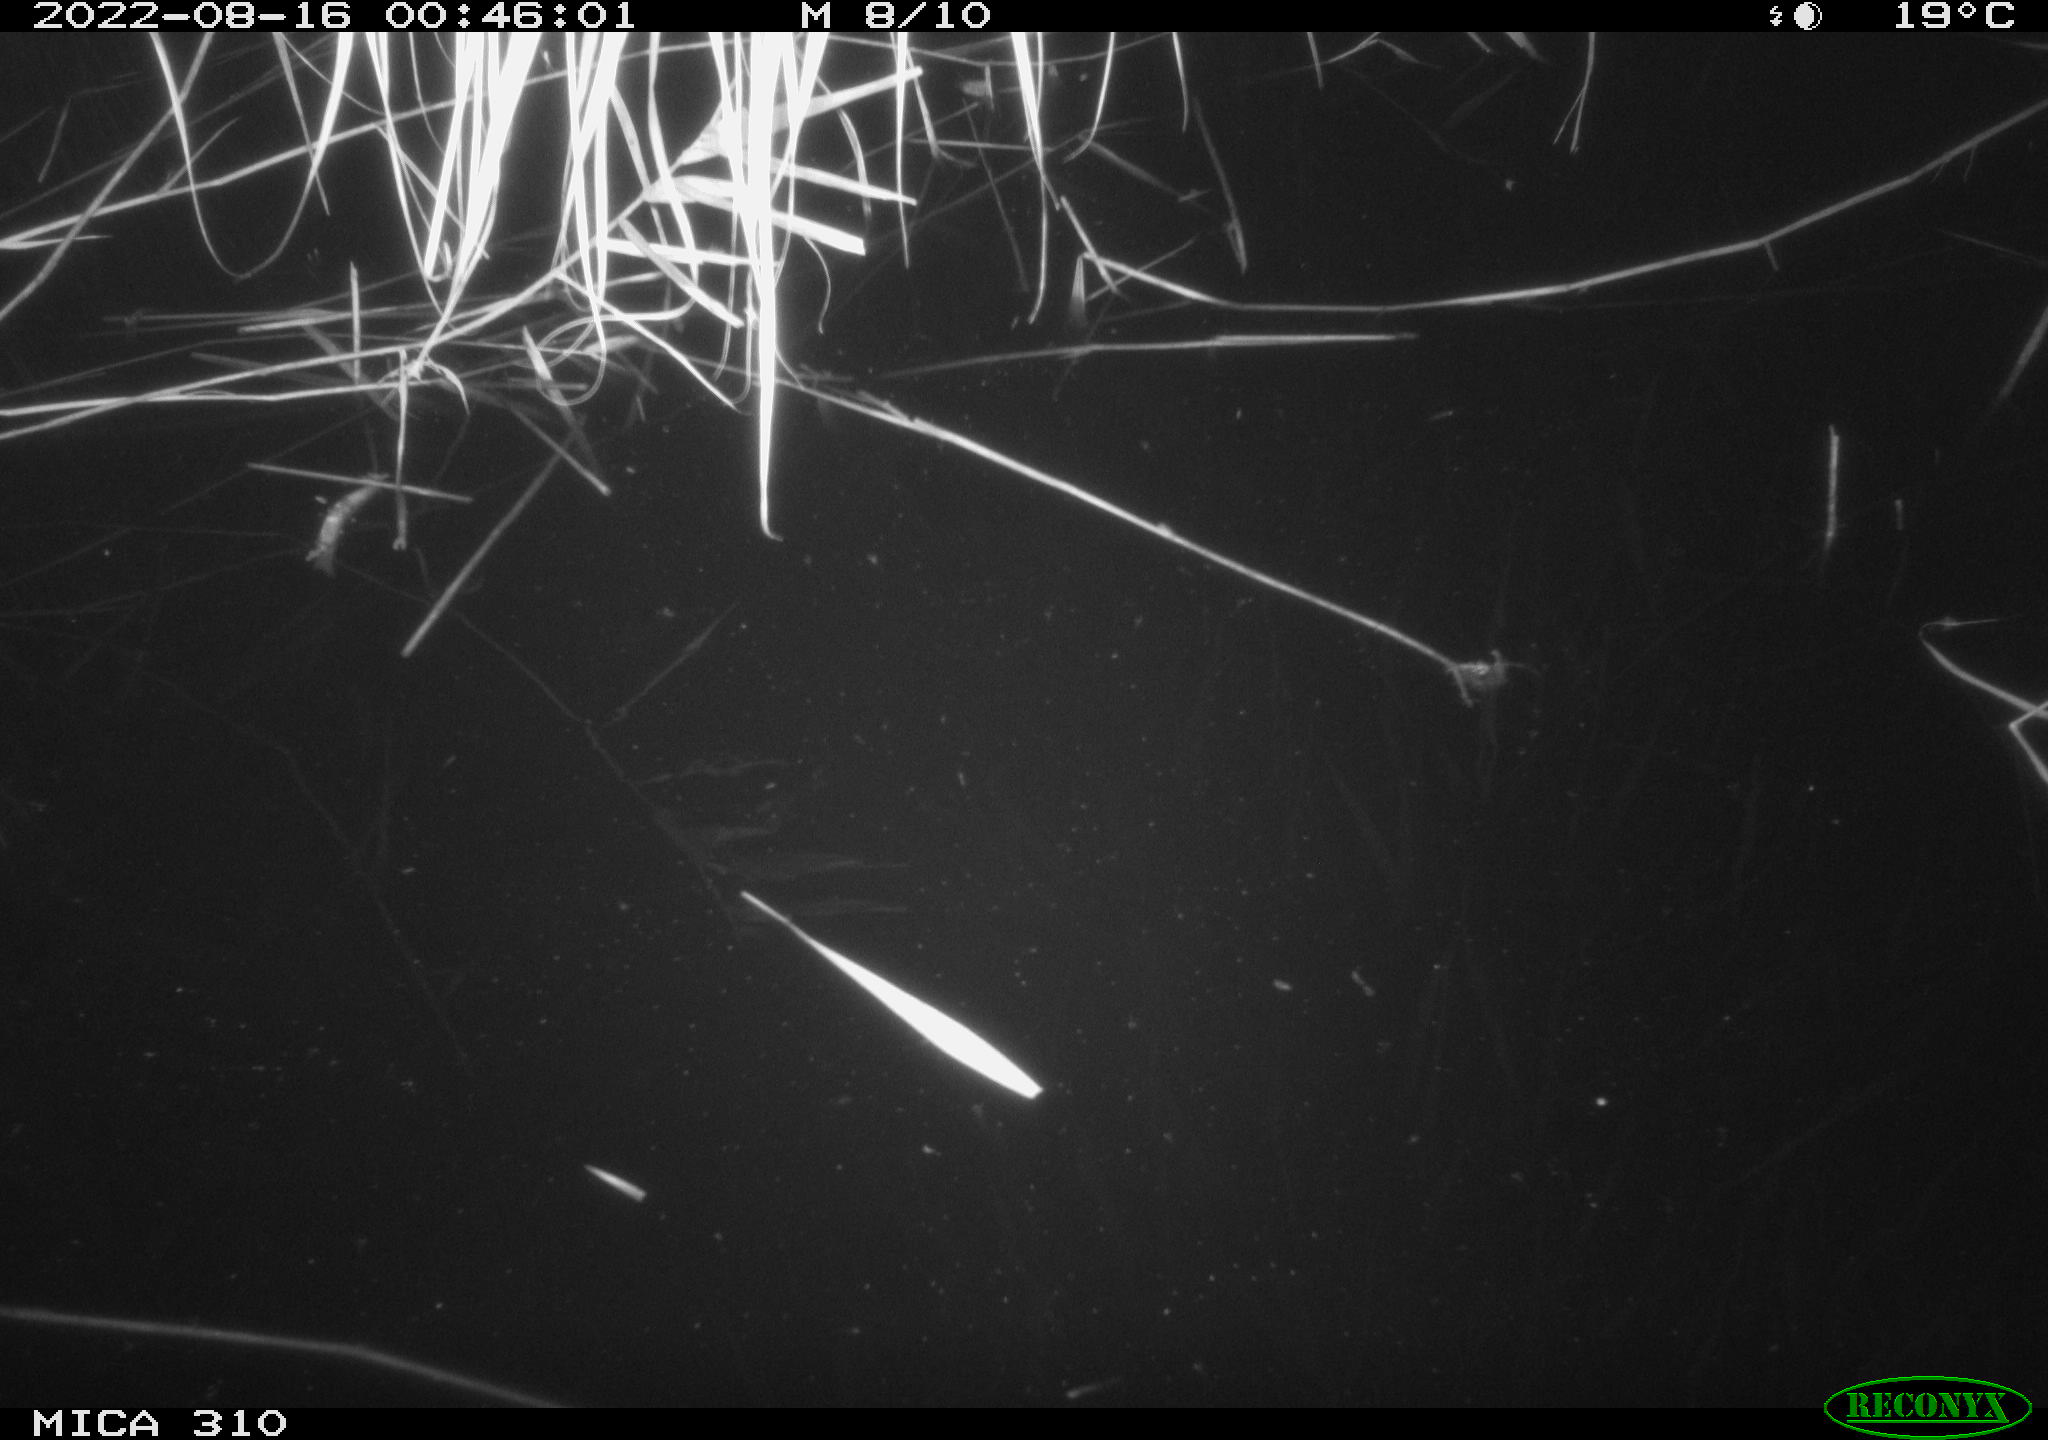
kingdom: Animalia
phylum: Chordata
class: Aves
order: Anseriformes
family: Anatidae
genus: Anas
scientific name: Anas platyrhynchos
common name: Mallard
